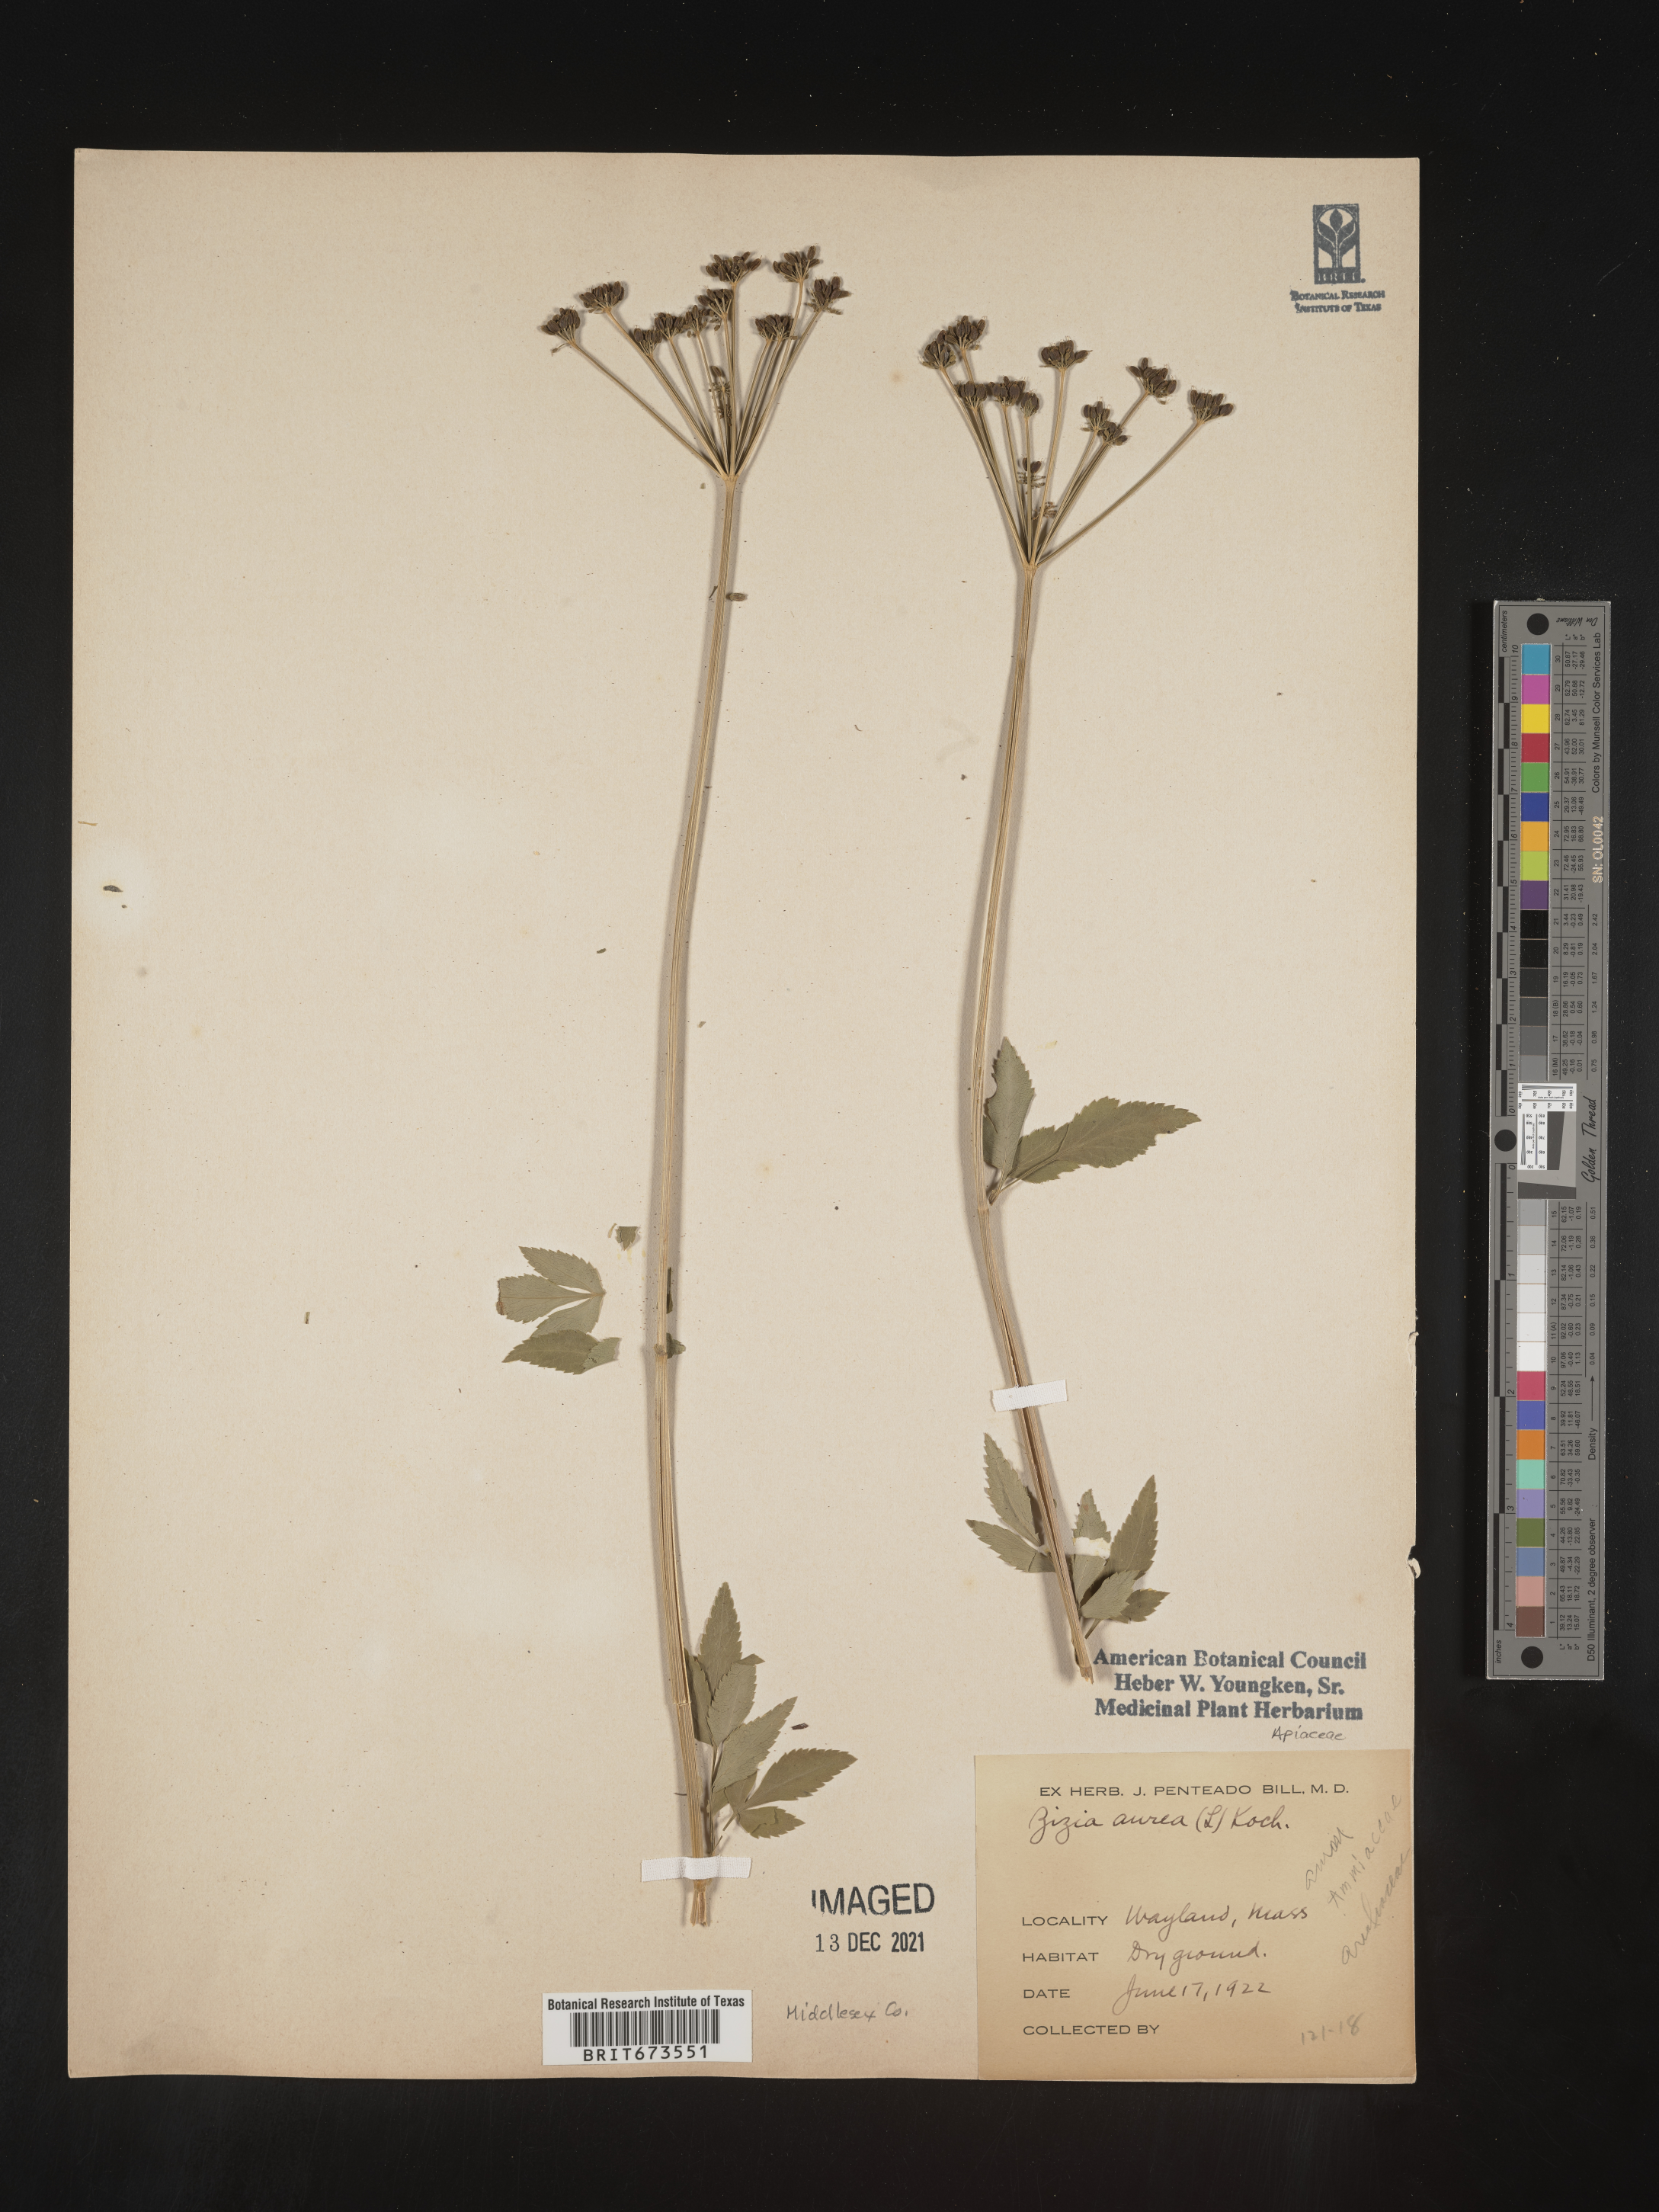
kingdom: Plantae
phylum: Tracheophyta
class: Magnoliopsida
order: Apiales
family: Apiaceae
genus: Zizia
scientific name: Zizia aurea
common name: Golden alexanders
